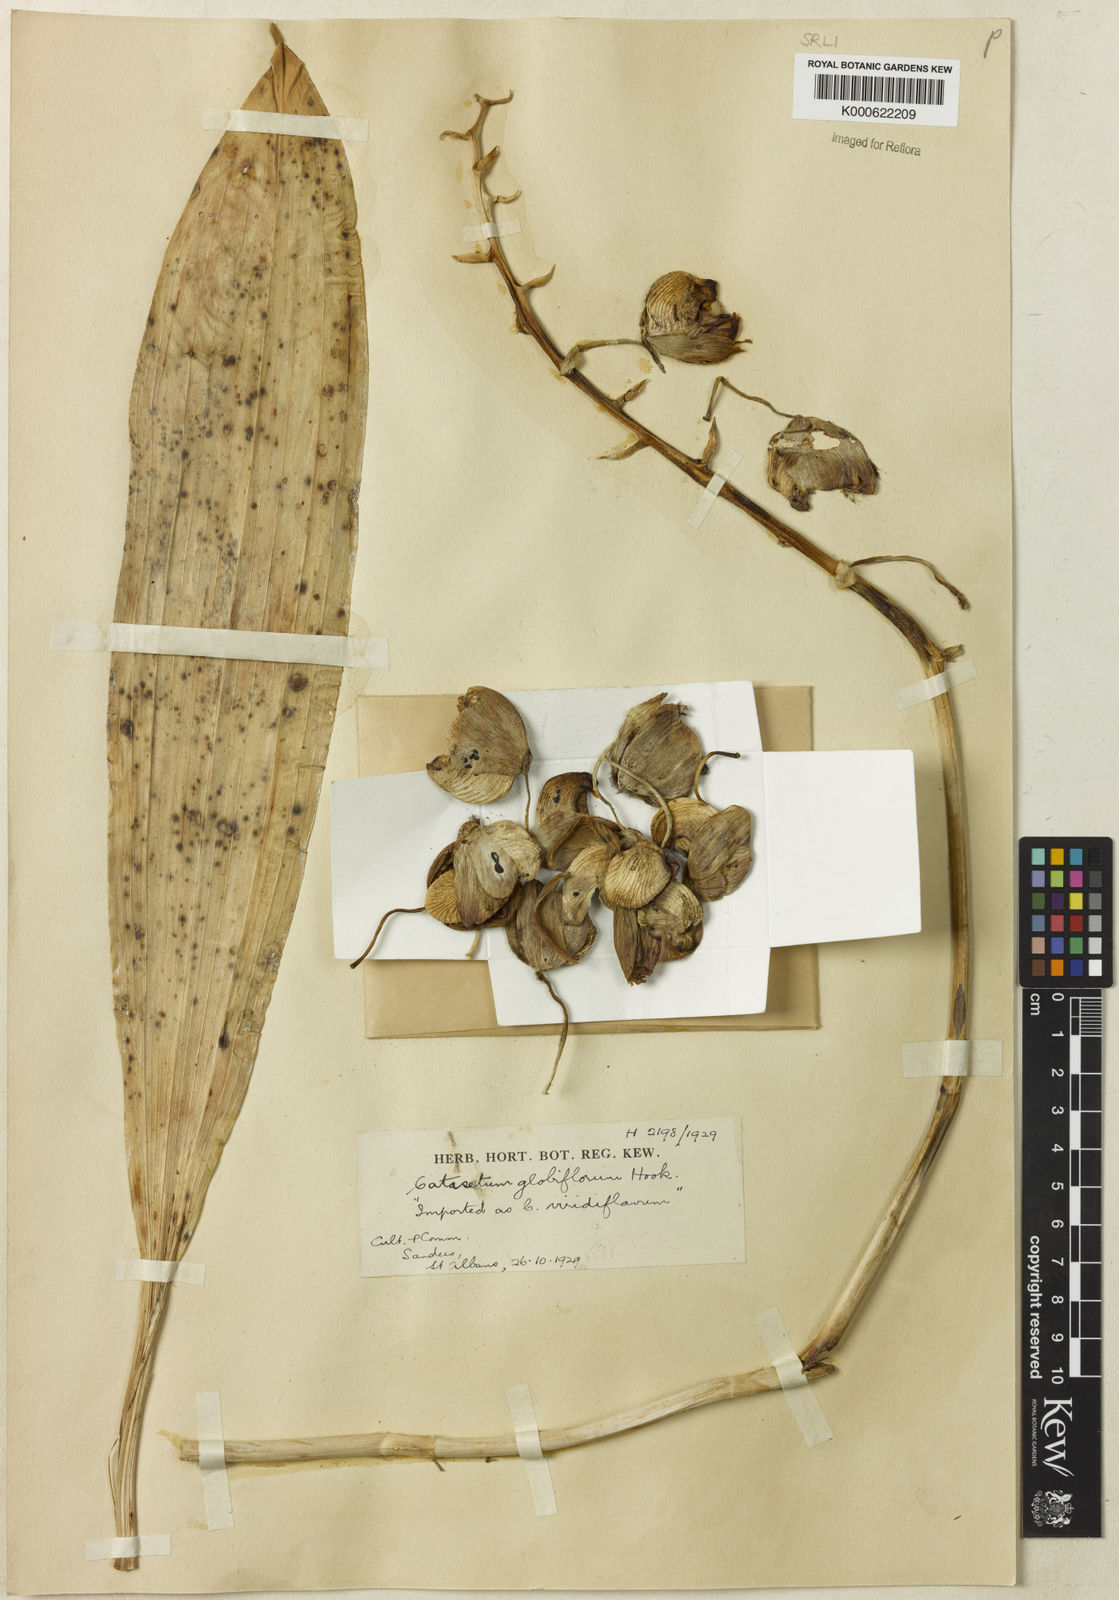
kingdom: Plantae
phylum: Tracheophyta
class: Liliopsida
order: Asparagales
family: Orchidaceae
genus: Catasetum
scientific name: Catasetum
